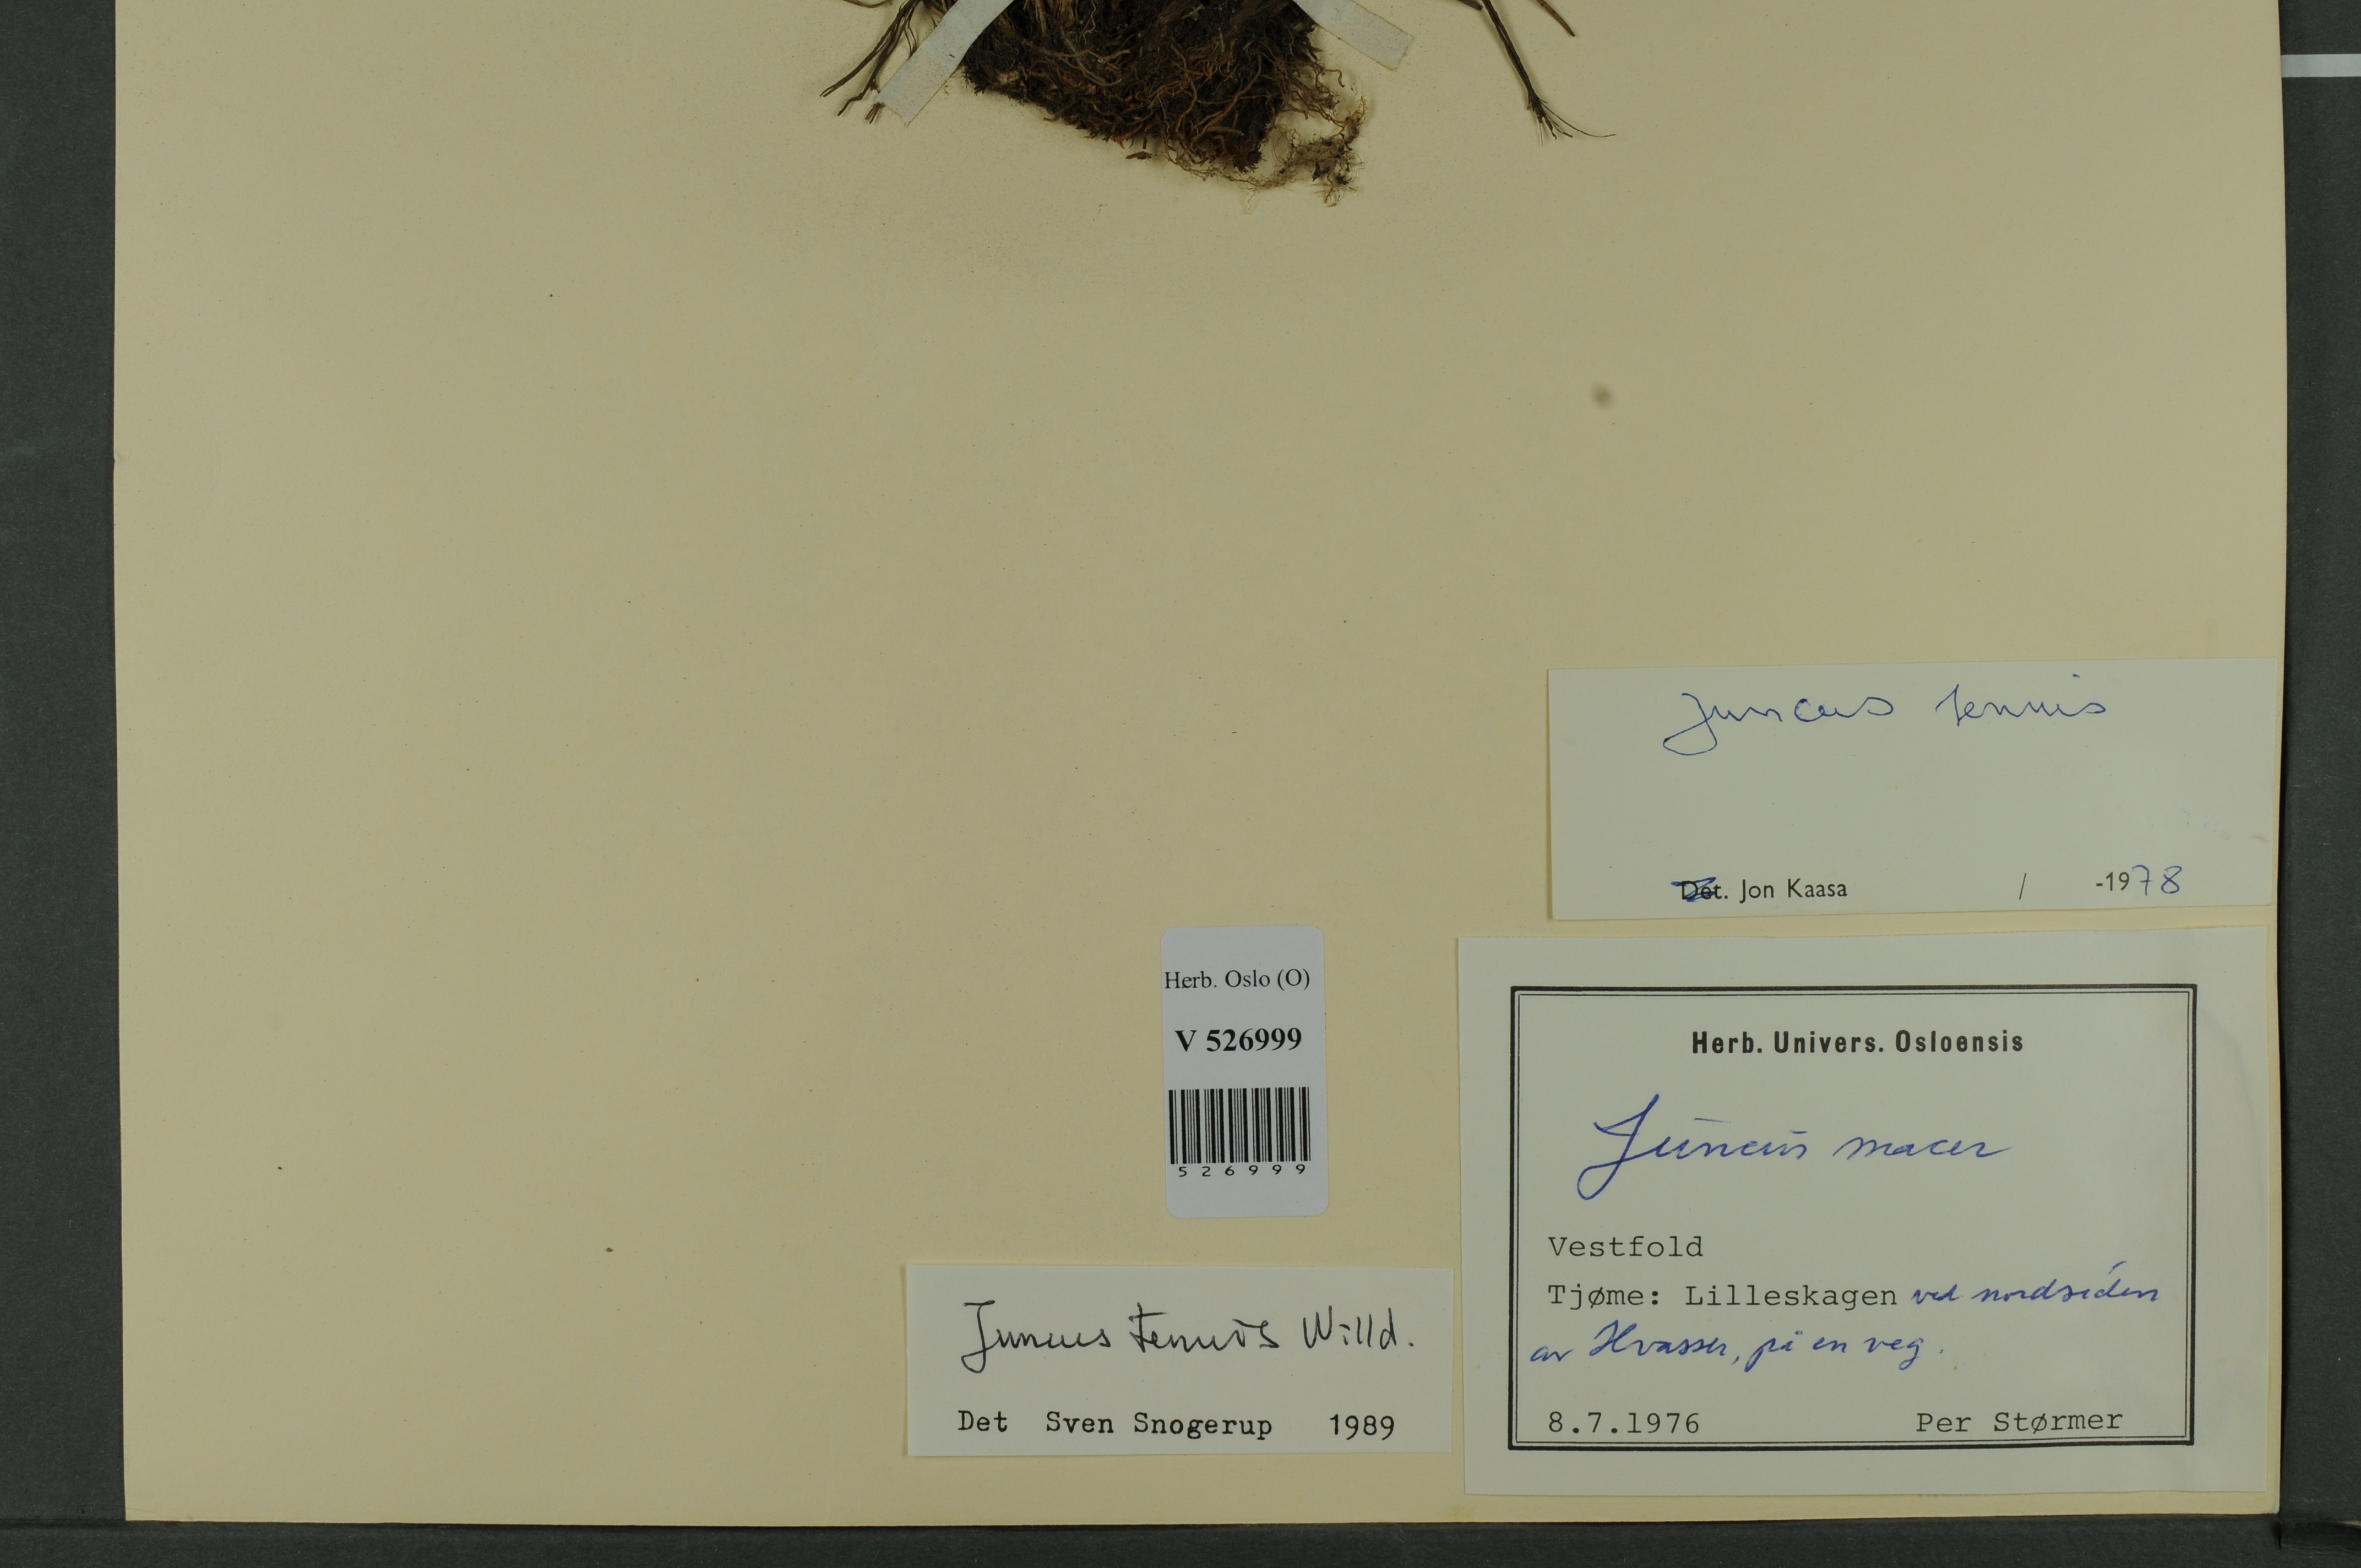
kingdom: Plantae
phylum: Tracheophyta
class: Liliopsida
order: Poales
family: Juncaceae
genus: Juncus
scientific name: Juncus tenuis
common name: Slender rush
